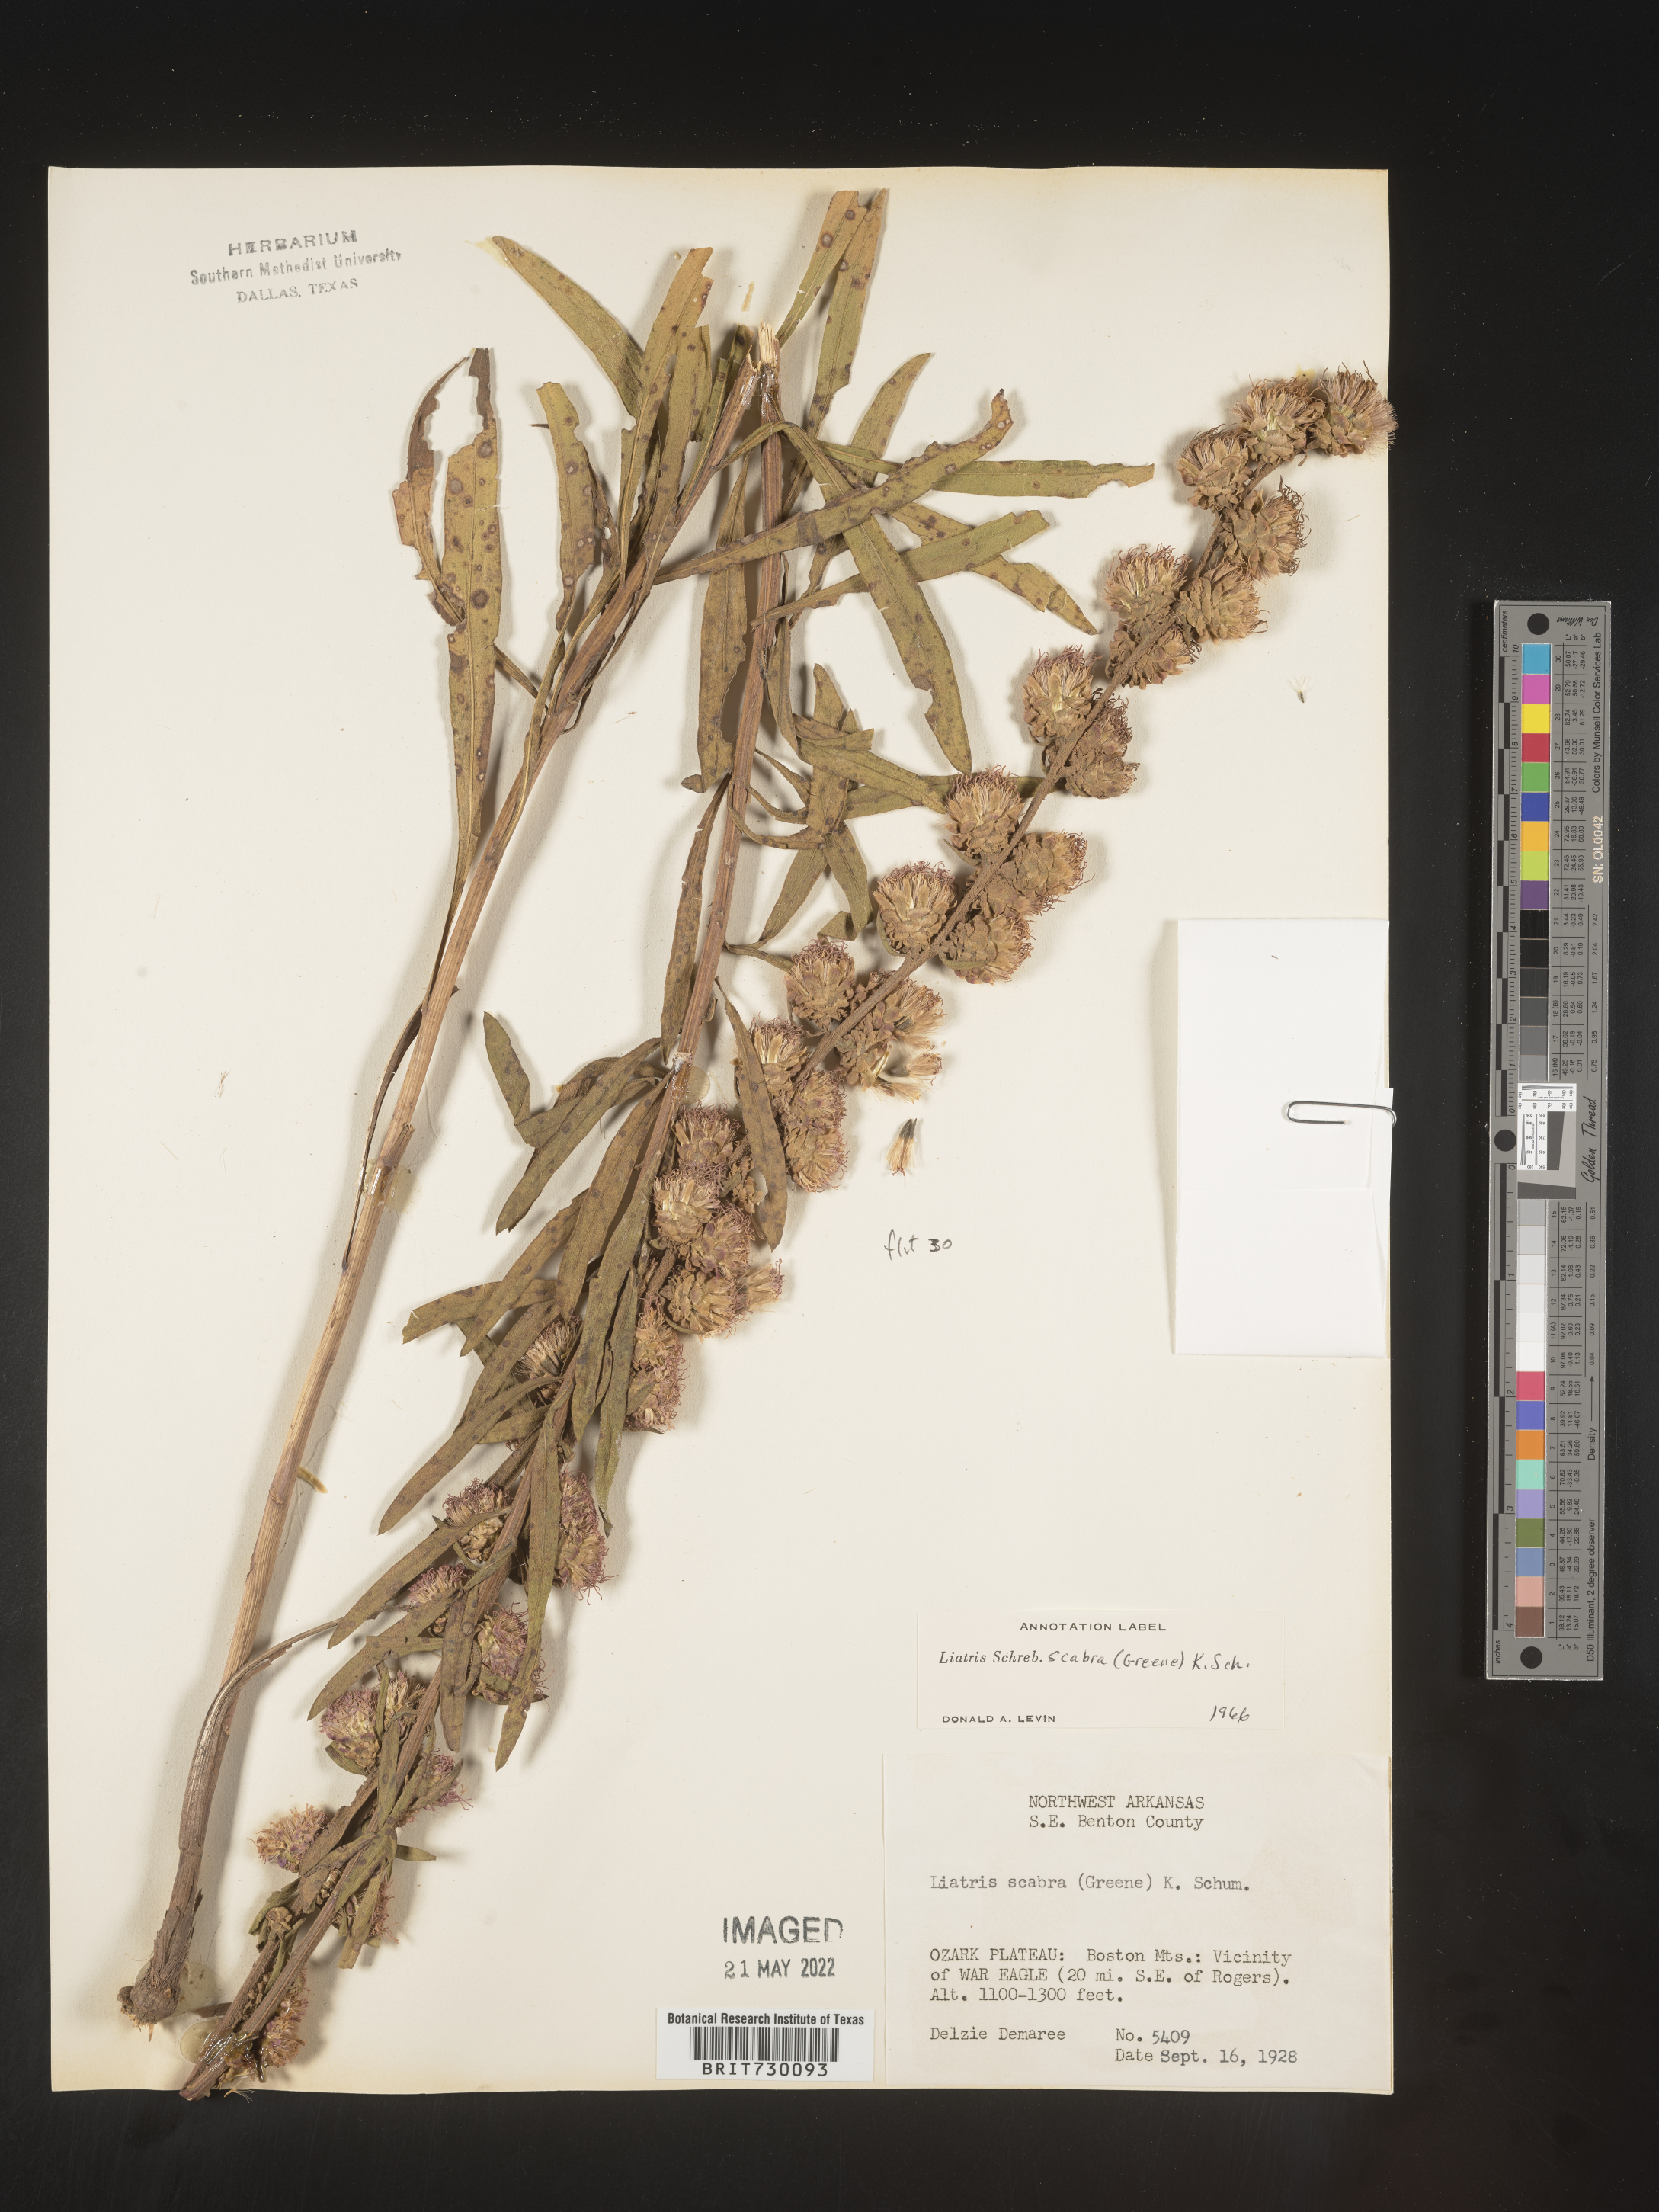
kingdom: Plantae
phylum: Tracheophyta
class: Magnoliopsida
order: Asterales
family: Asteraceae
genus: Liatris
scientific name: Liatris aspera
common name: Lacerate blazing-star
